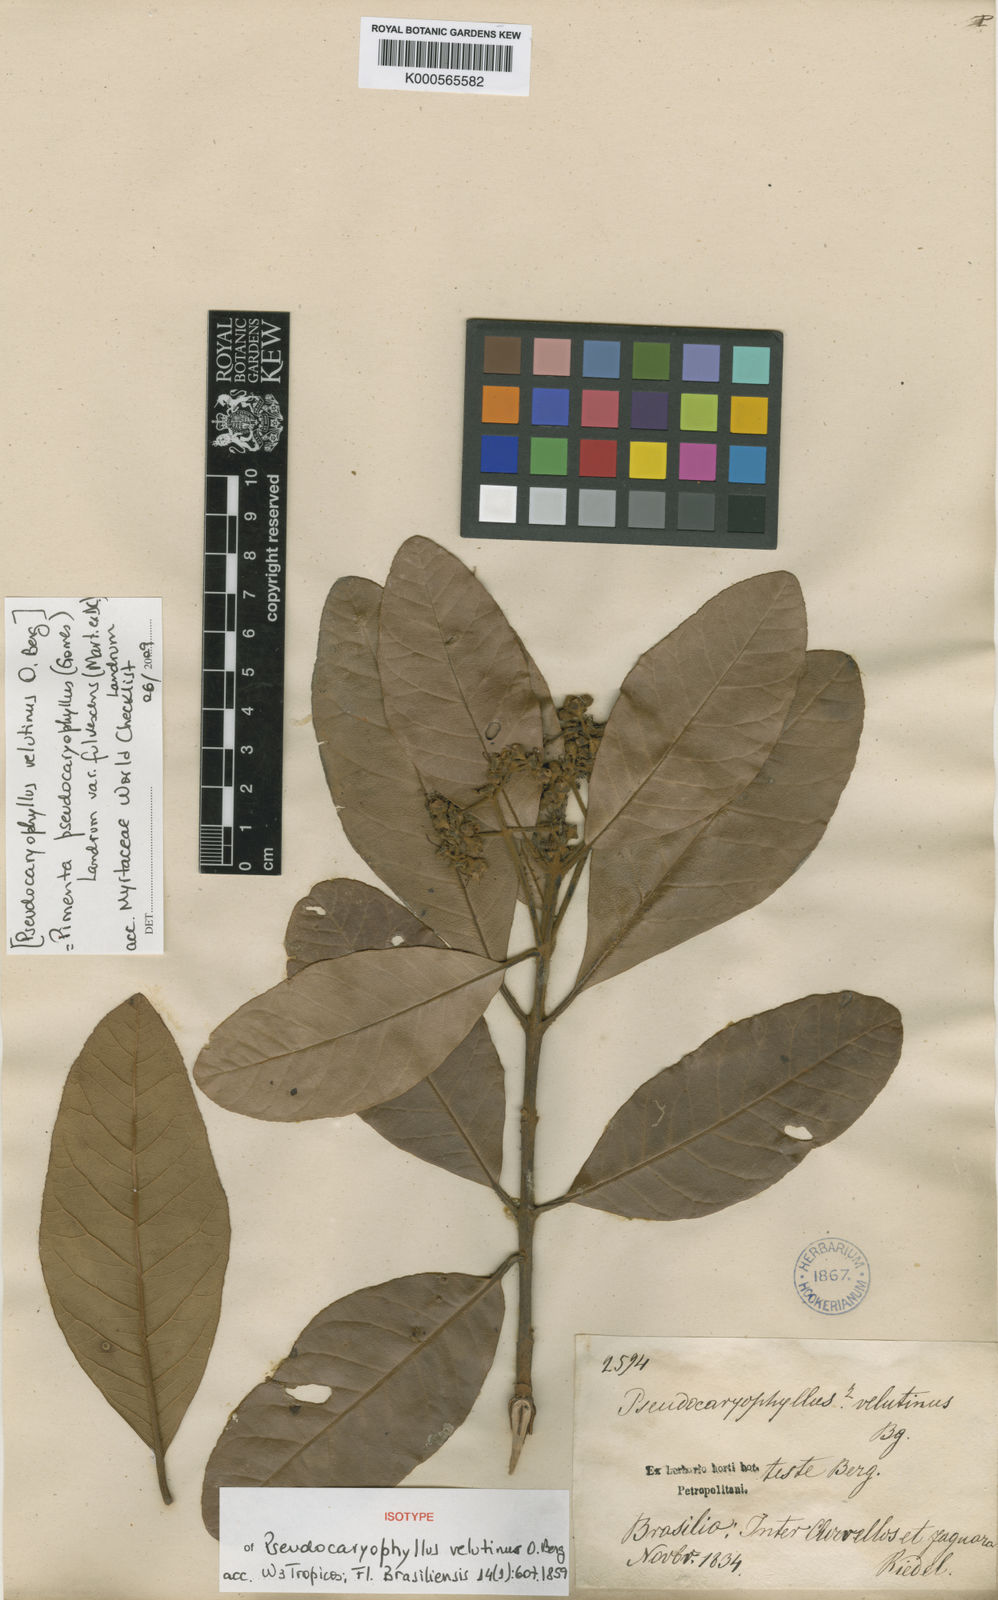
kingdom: Plantae
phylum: Tracheophyta
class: Magnoliopsida
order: Myrtales
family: Myrtaceae
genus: Pimenta
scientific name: Pimenta pseudocaryophyllus
